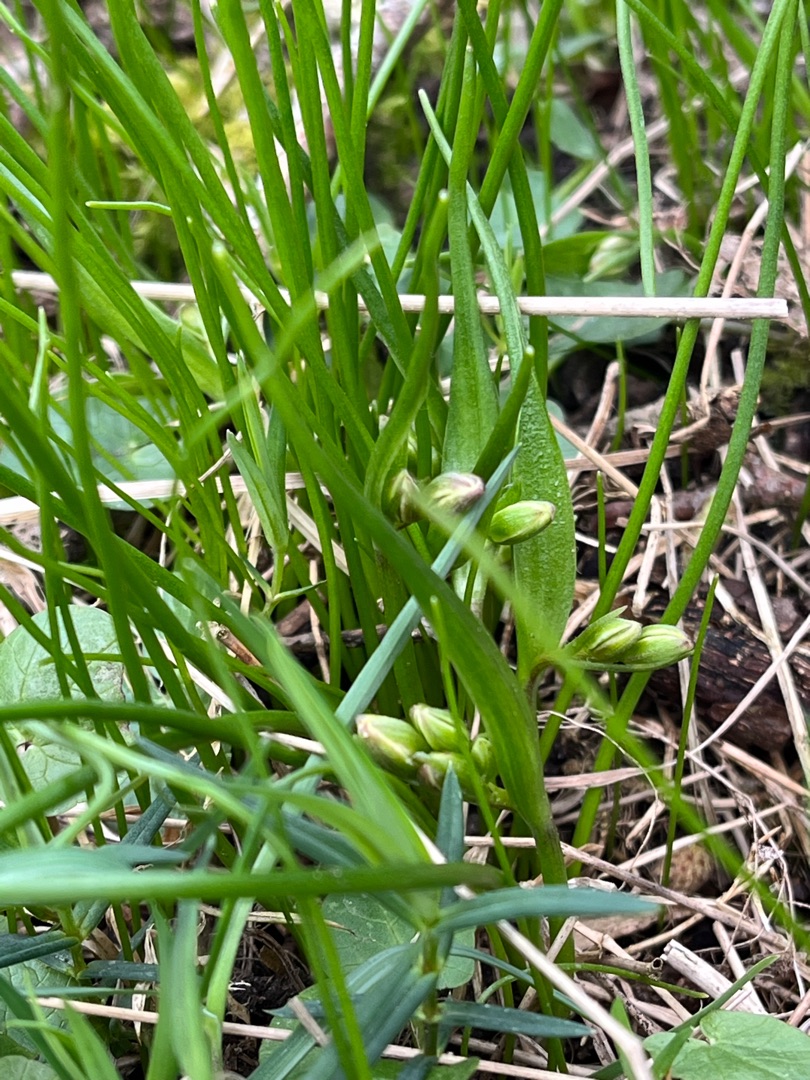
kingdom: Plantae
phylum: Tracheophyta
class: Liliopsida
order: Liliales
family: Liliaceae
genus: Gagea
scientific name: Gagea spathacea
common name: Hylster-guldstjerne
